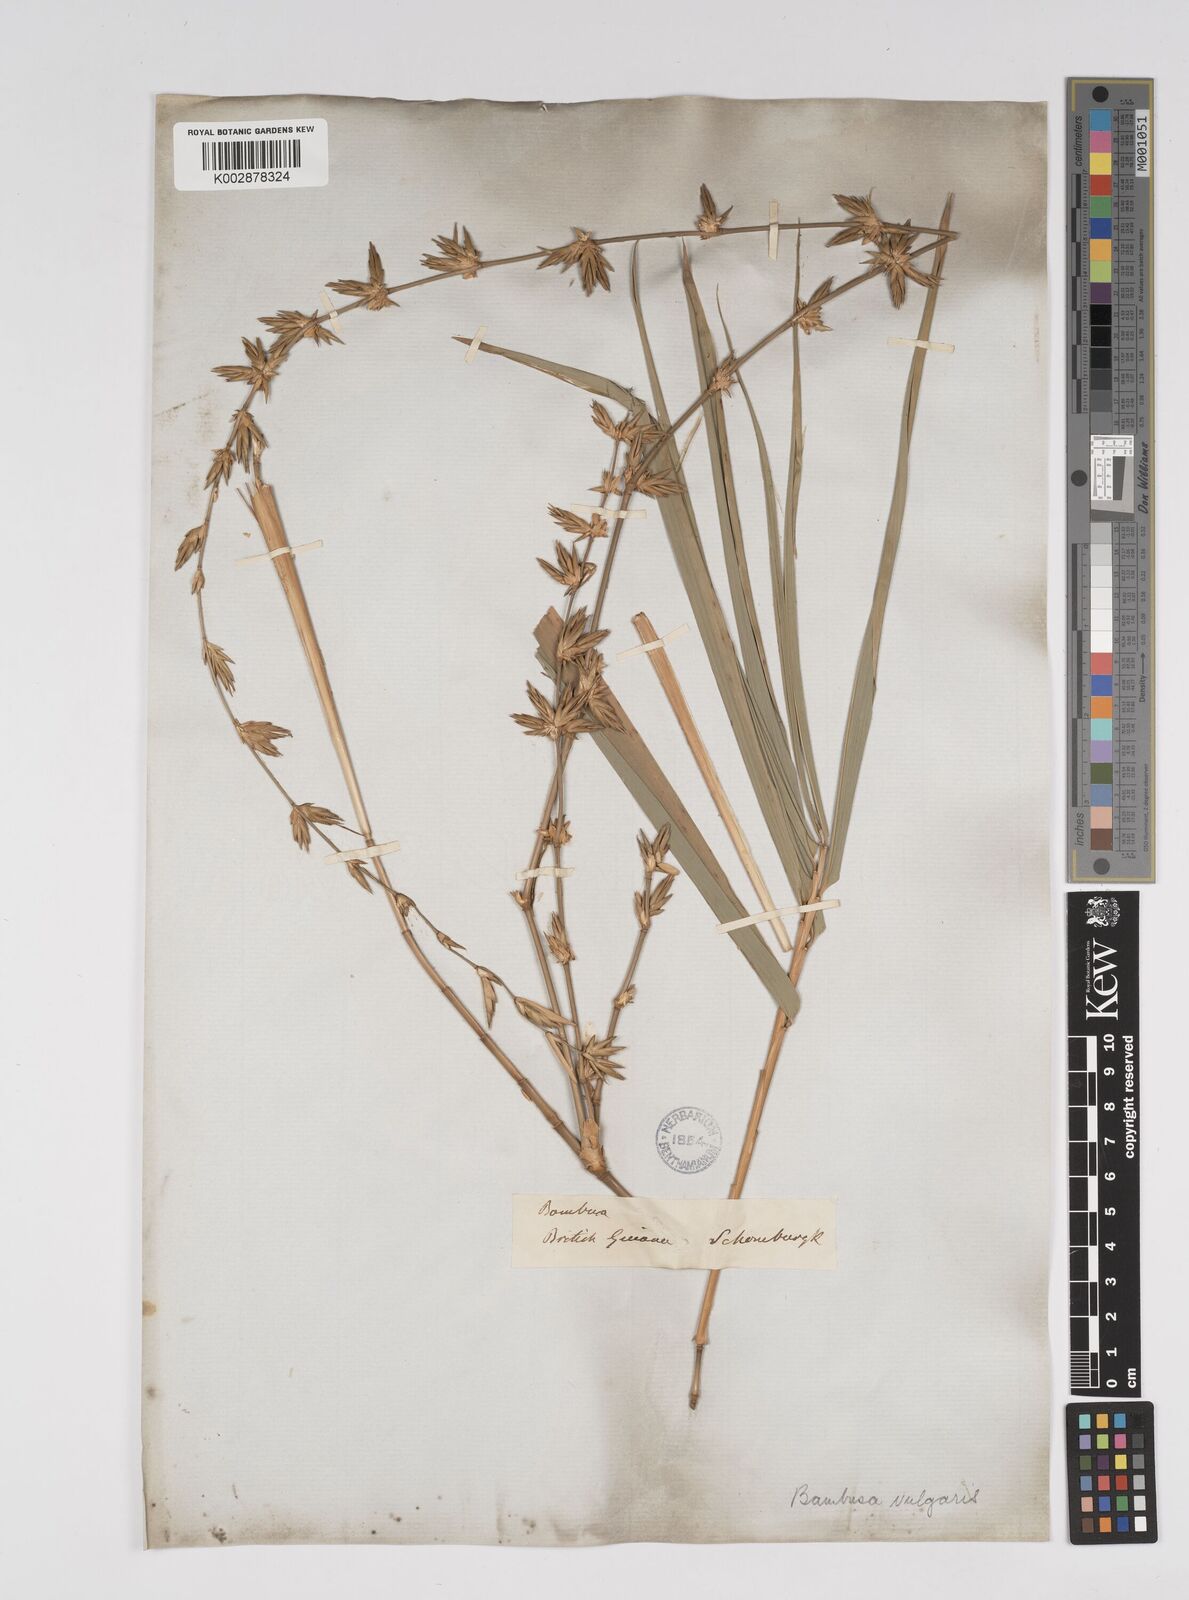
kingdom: Plantae
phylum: Tracheophyta
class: Liliopsida
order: Poales
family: Poaceae
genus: Bambusa
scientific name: Bambusa vulgaris
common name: Common bamboo
